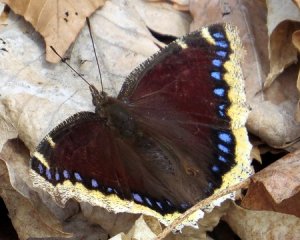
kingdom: Animalia
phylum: Arthropoda
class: Insecta
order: Lepidoptera
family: Nymphalidae
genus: Nymphalis
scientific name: Nymphalis antiopa
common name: Mourning Cloak
